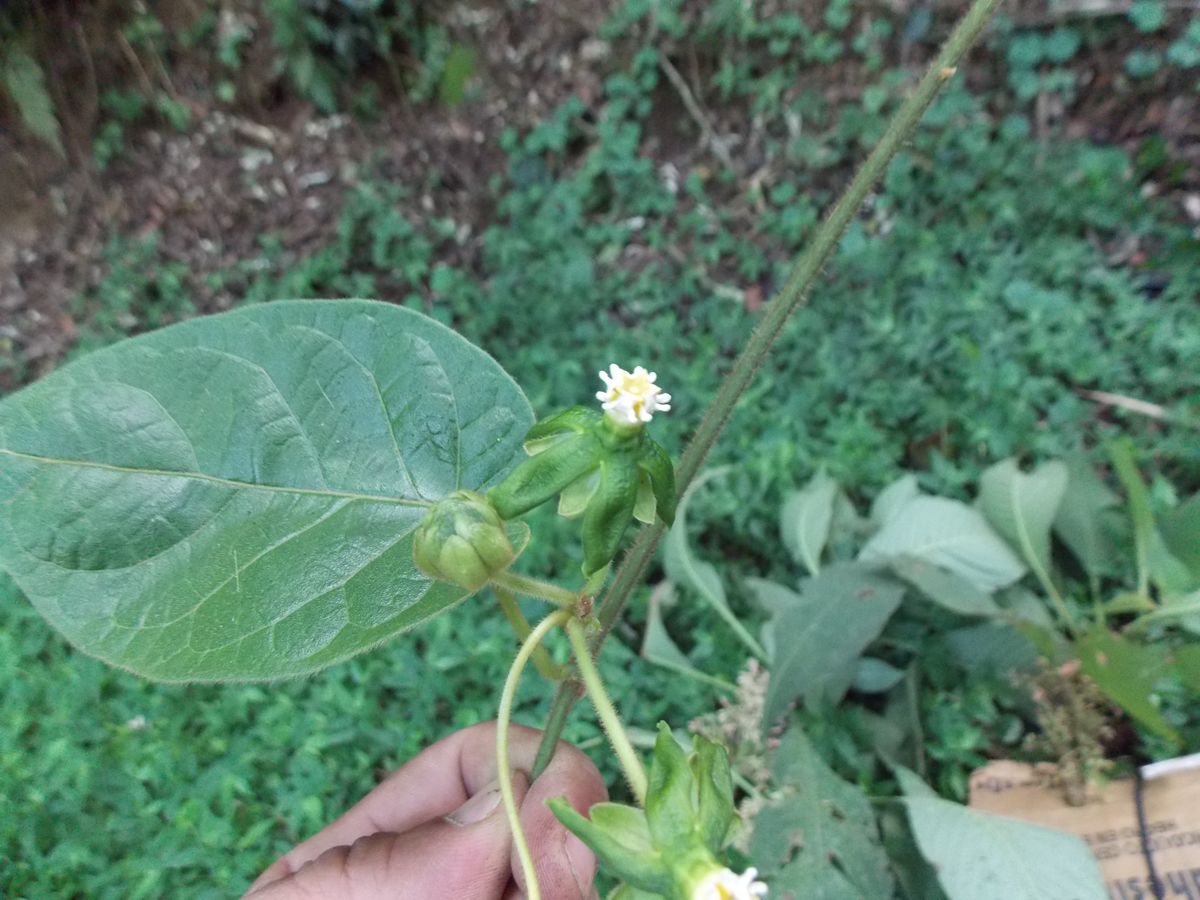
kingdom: Plantae
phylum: Tracheophyta
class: Magnoliopsida
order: Gentianales
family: Apocynaceae
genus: Gonolobus
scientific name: Gonolobus incerianus
